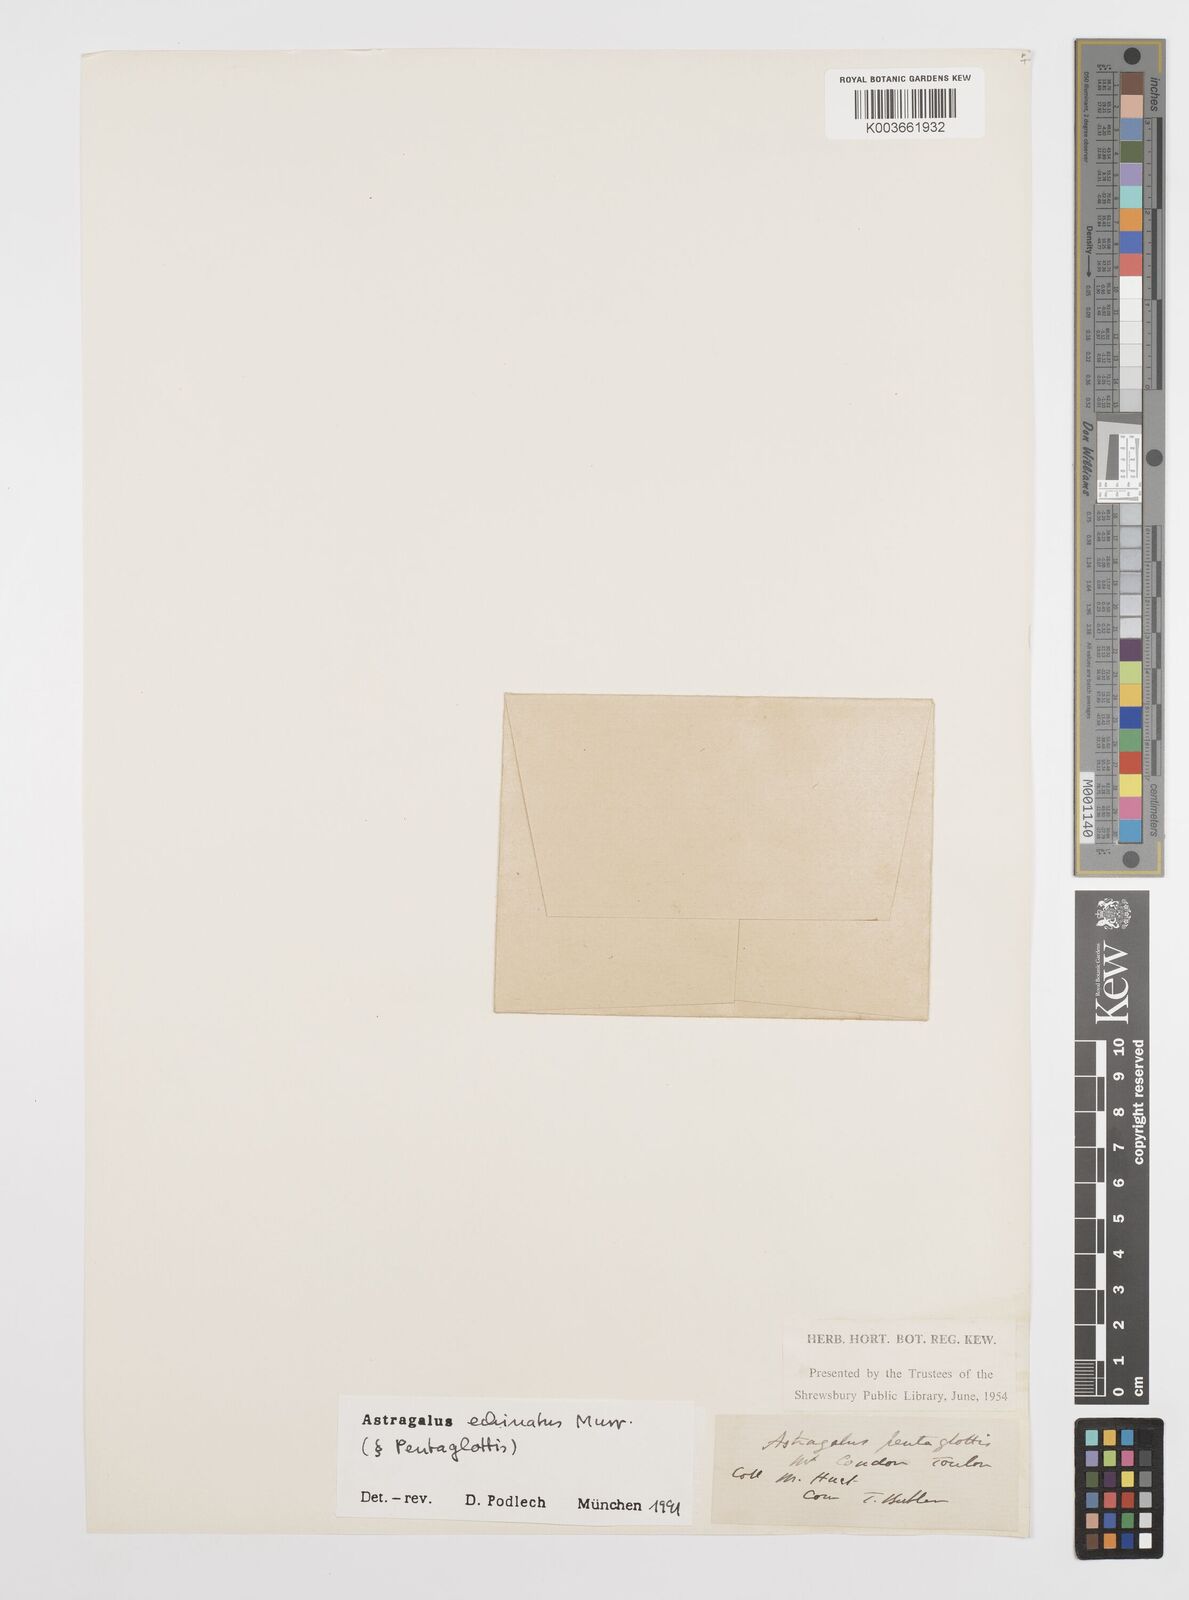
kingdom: Plantae
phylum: Tracheophyta
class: Magnoliopsida
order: Fabales
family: Fabaceae
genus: Astragalus
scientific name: Astragalus echinatus
